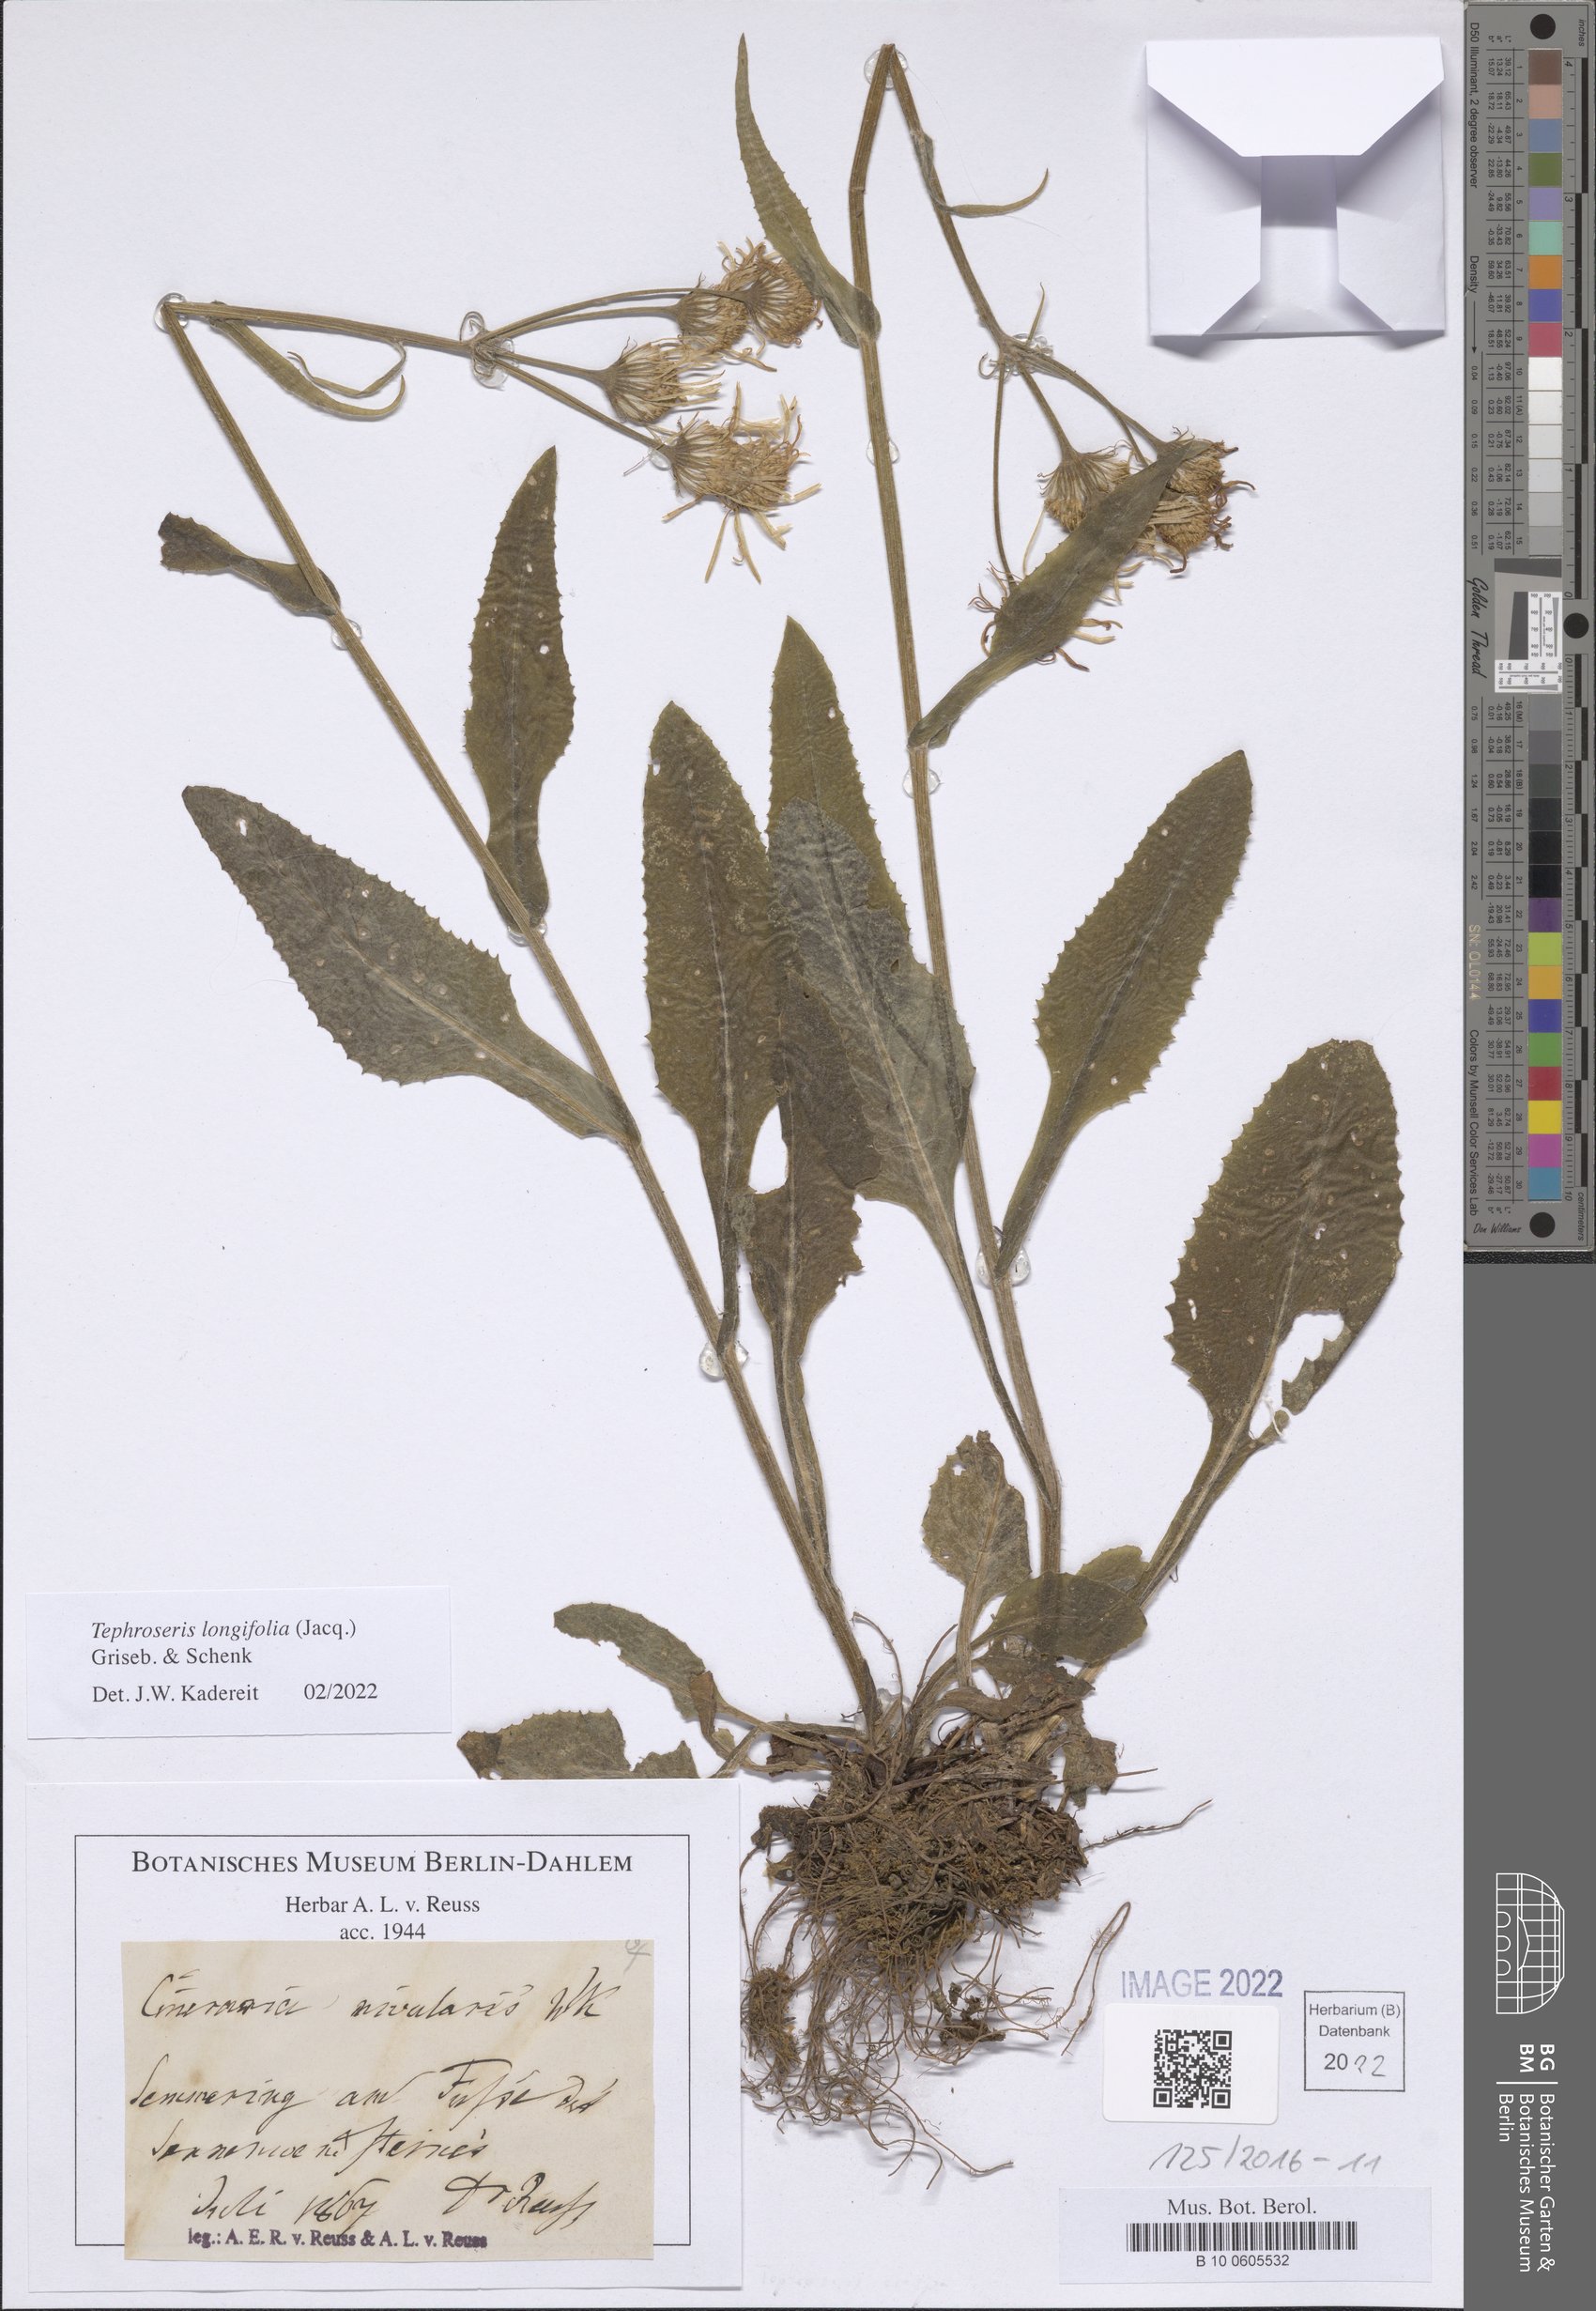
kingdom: Plantae
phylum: Tracheophyta
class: Magnoliopsida
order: Asterales
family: Asteraceae
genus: Tephroseris
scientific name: Tephroseris longifolia
